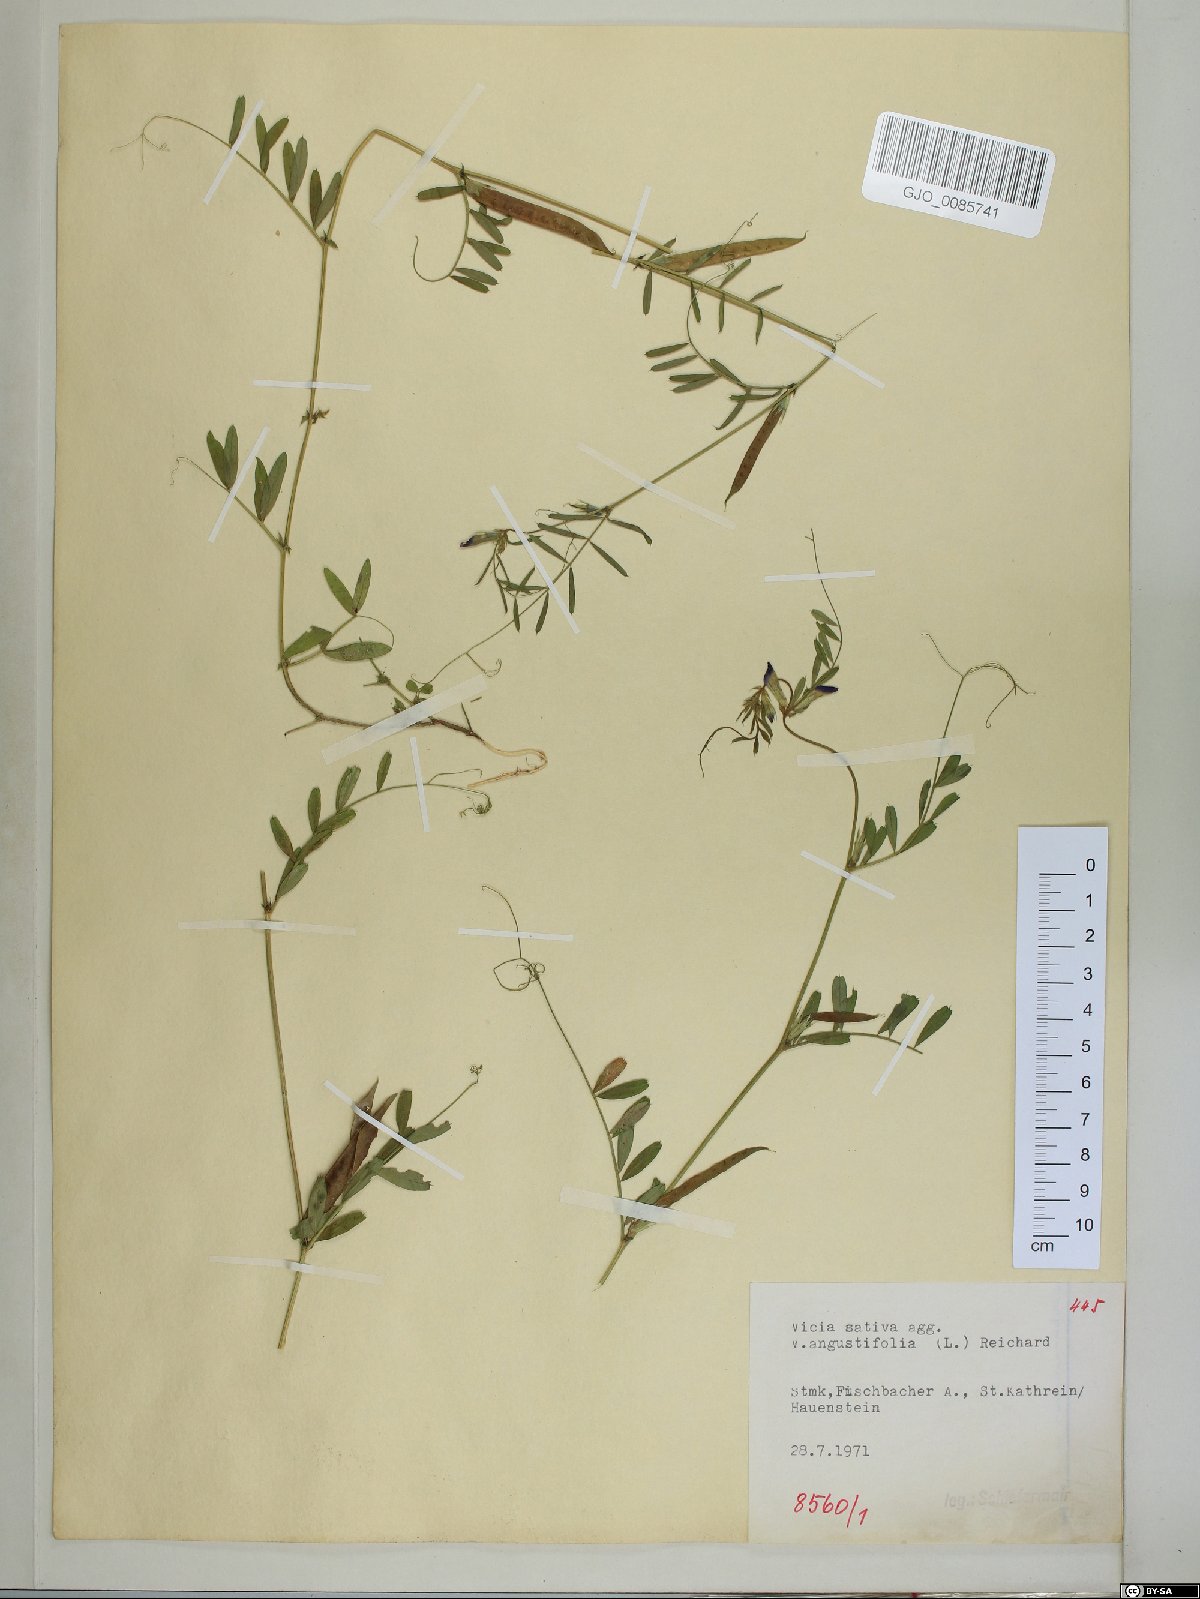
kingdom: Plantae
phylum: Tracheophyta
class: Magnoliopsida
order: Fabales
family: Fabaceae
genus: Vicia
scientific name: Vicia sativa
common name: Garden vetch
